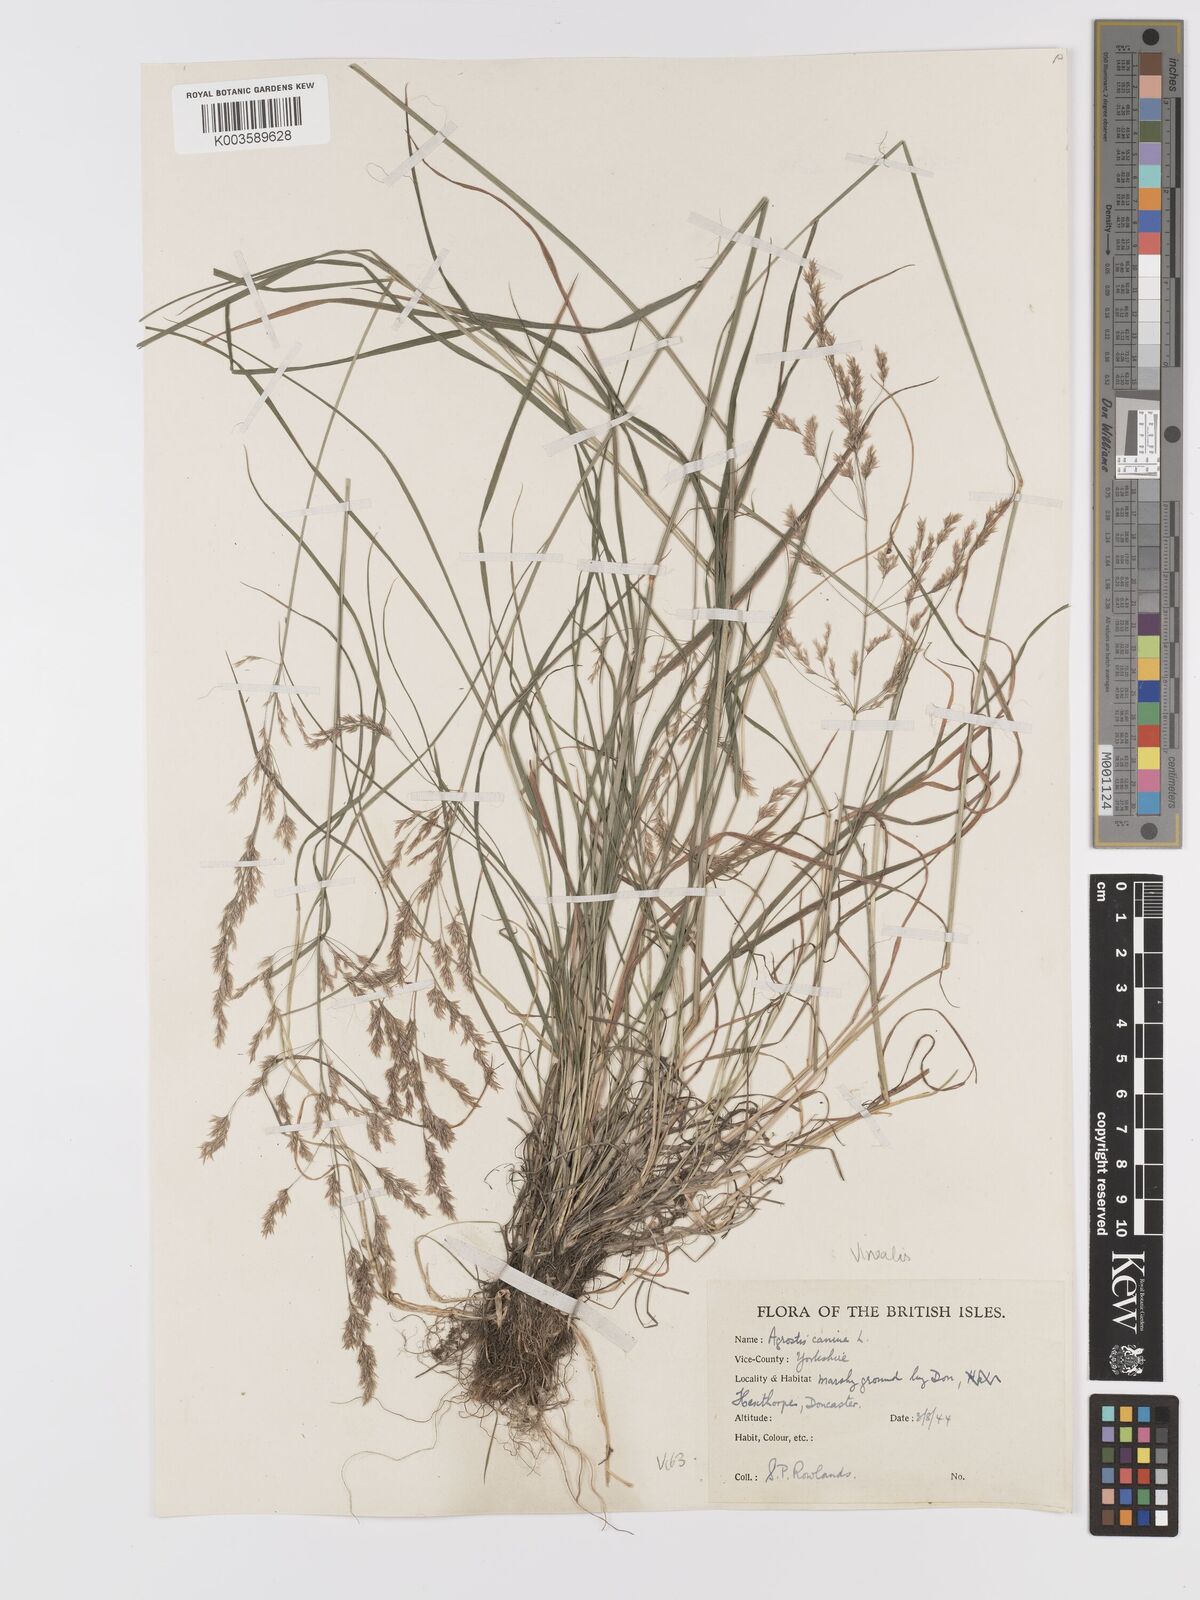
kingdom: Plantae
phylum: Tracheophyta
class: Liliopsida
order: Poales
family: Poaceae
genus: Agrostis
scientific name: Agrostis
